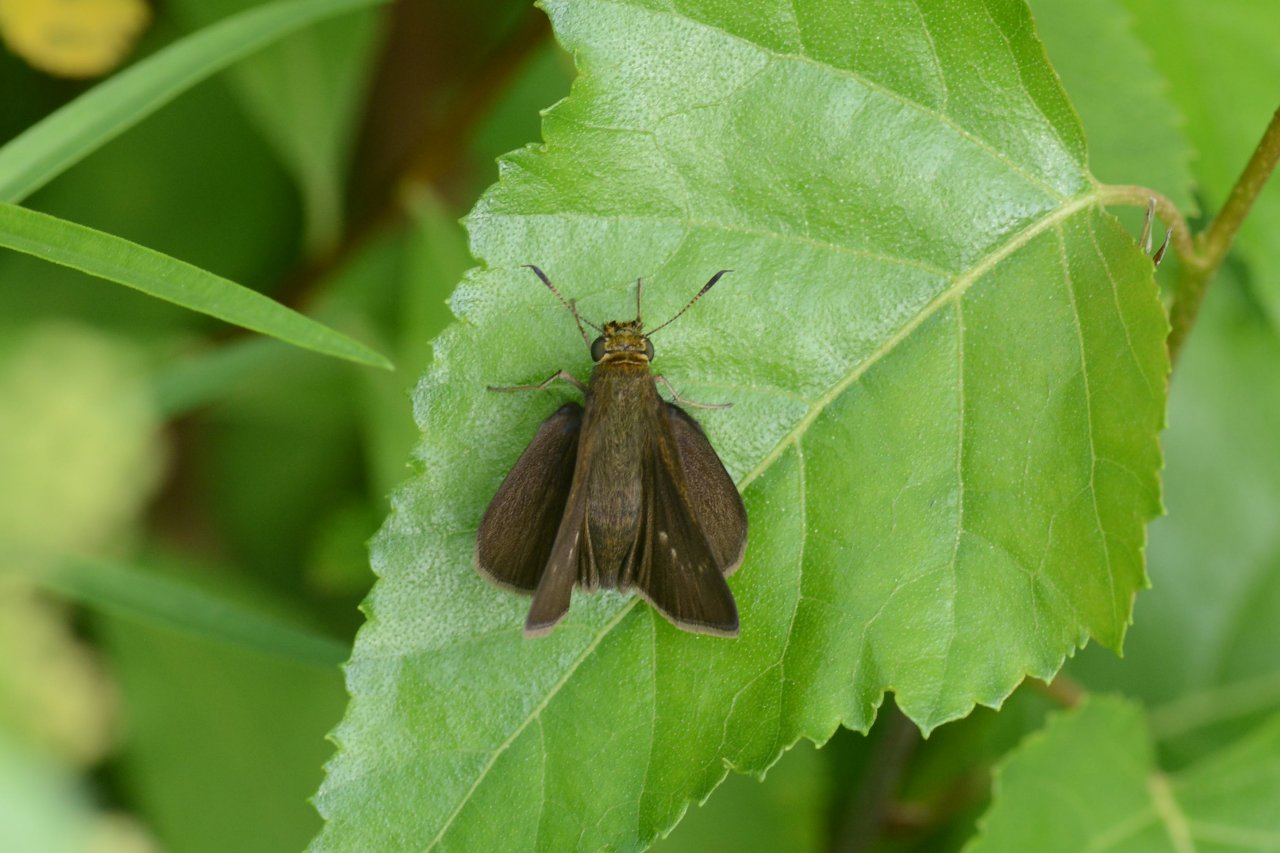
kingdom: Animalia
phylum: Arthropoda
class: Insecta
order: Lepidoptera
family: Hesperiidae
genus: Euphyes
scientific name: Euphyes vestris
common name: Dun Skipper
